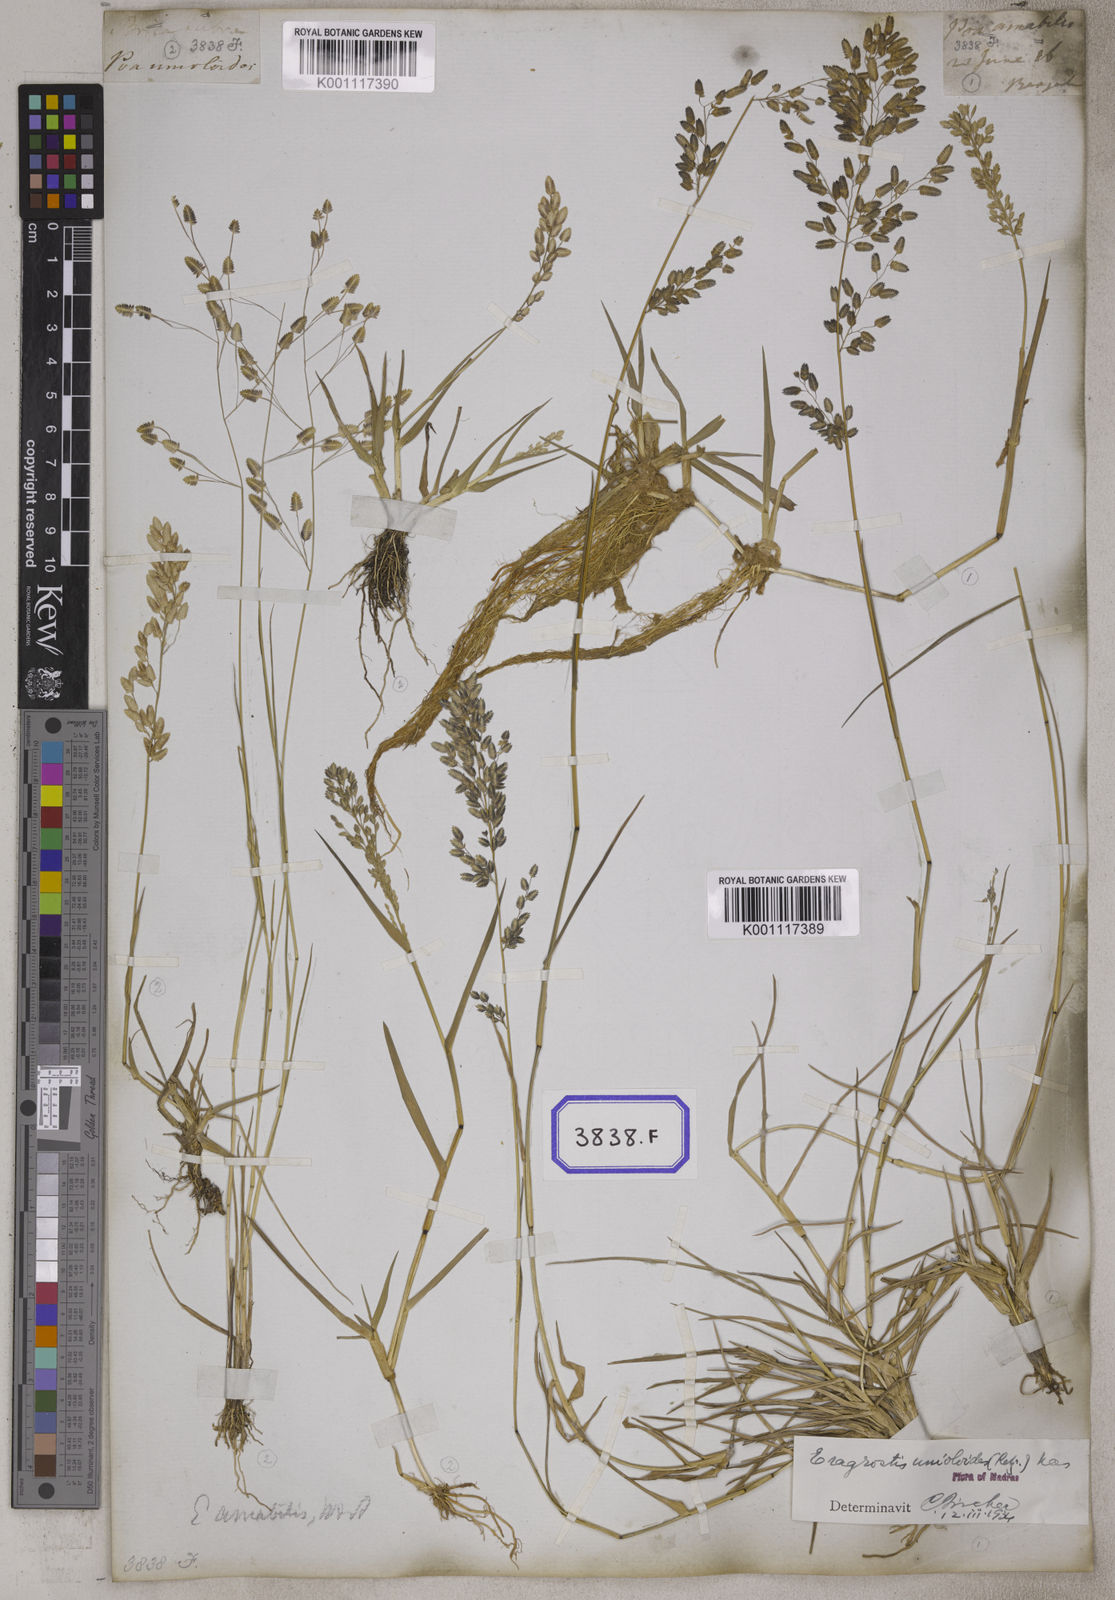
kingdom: Plantae
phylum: Tracheophyta
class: Liliopsida
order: Poales
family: Poaceae
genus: Eragrostis
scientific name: Eragrostis
